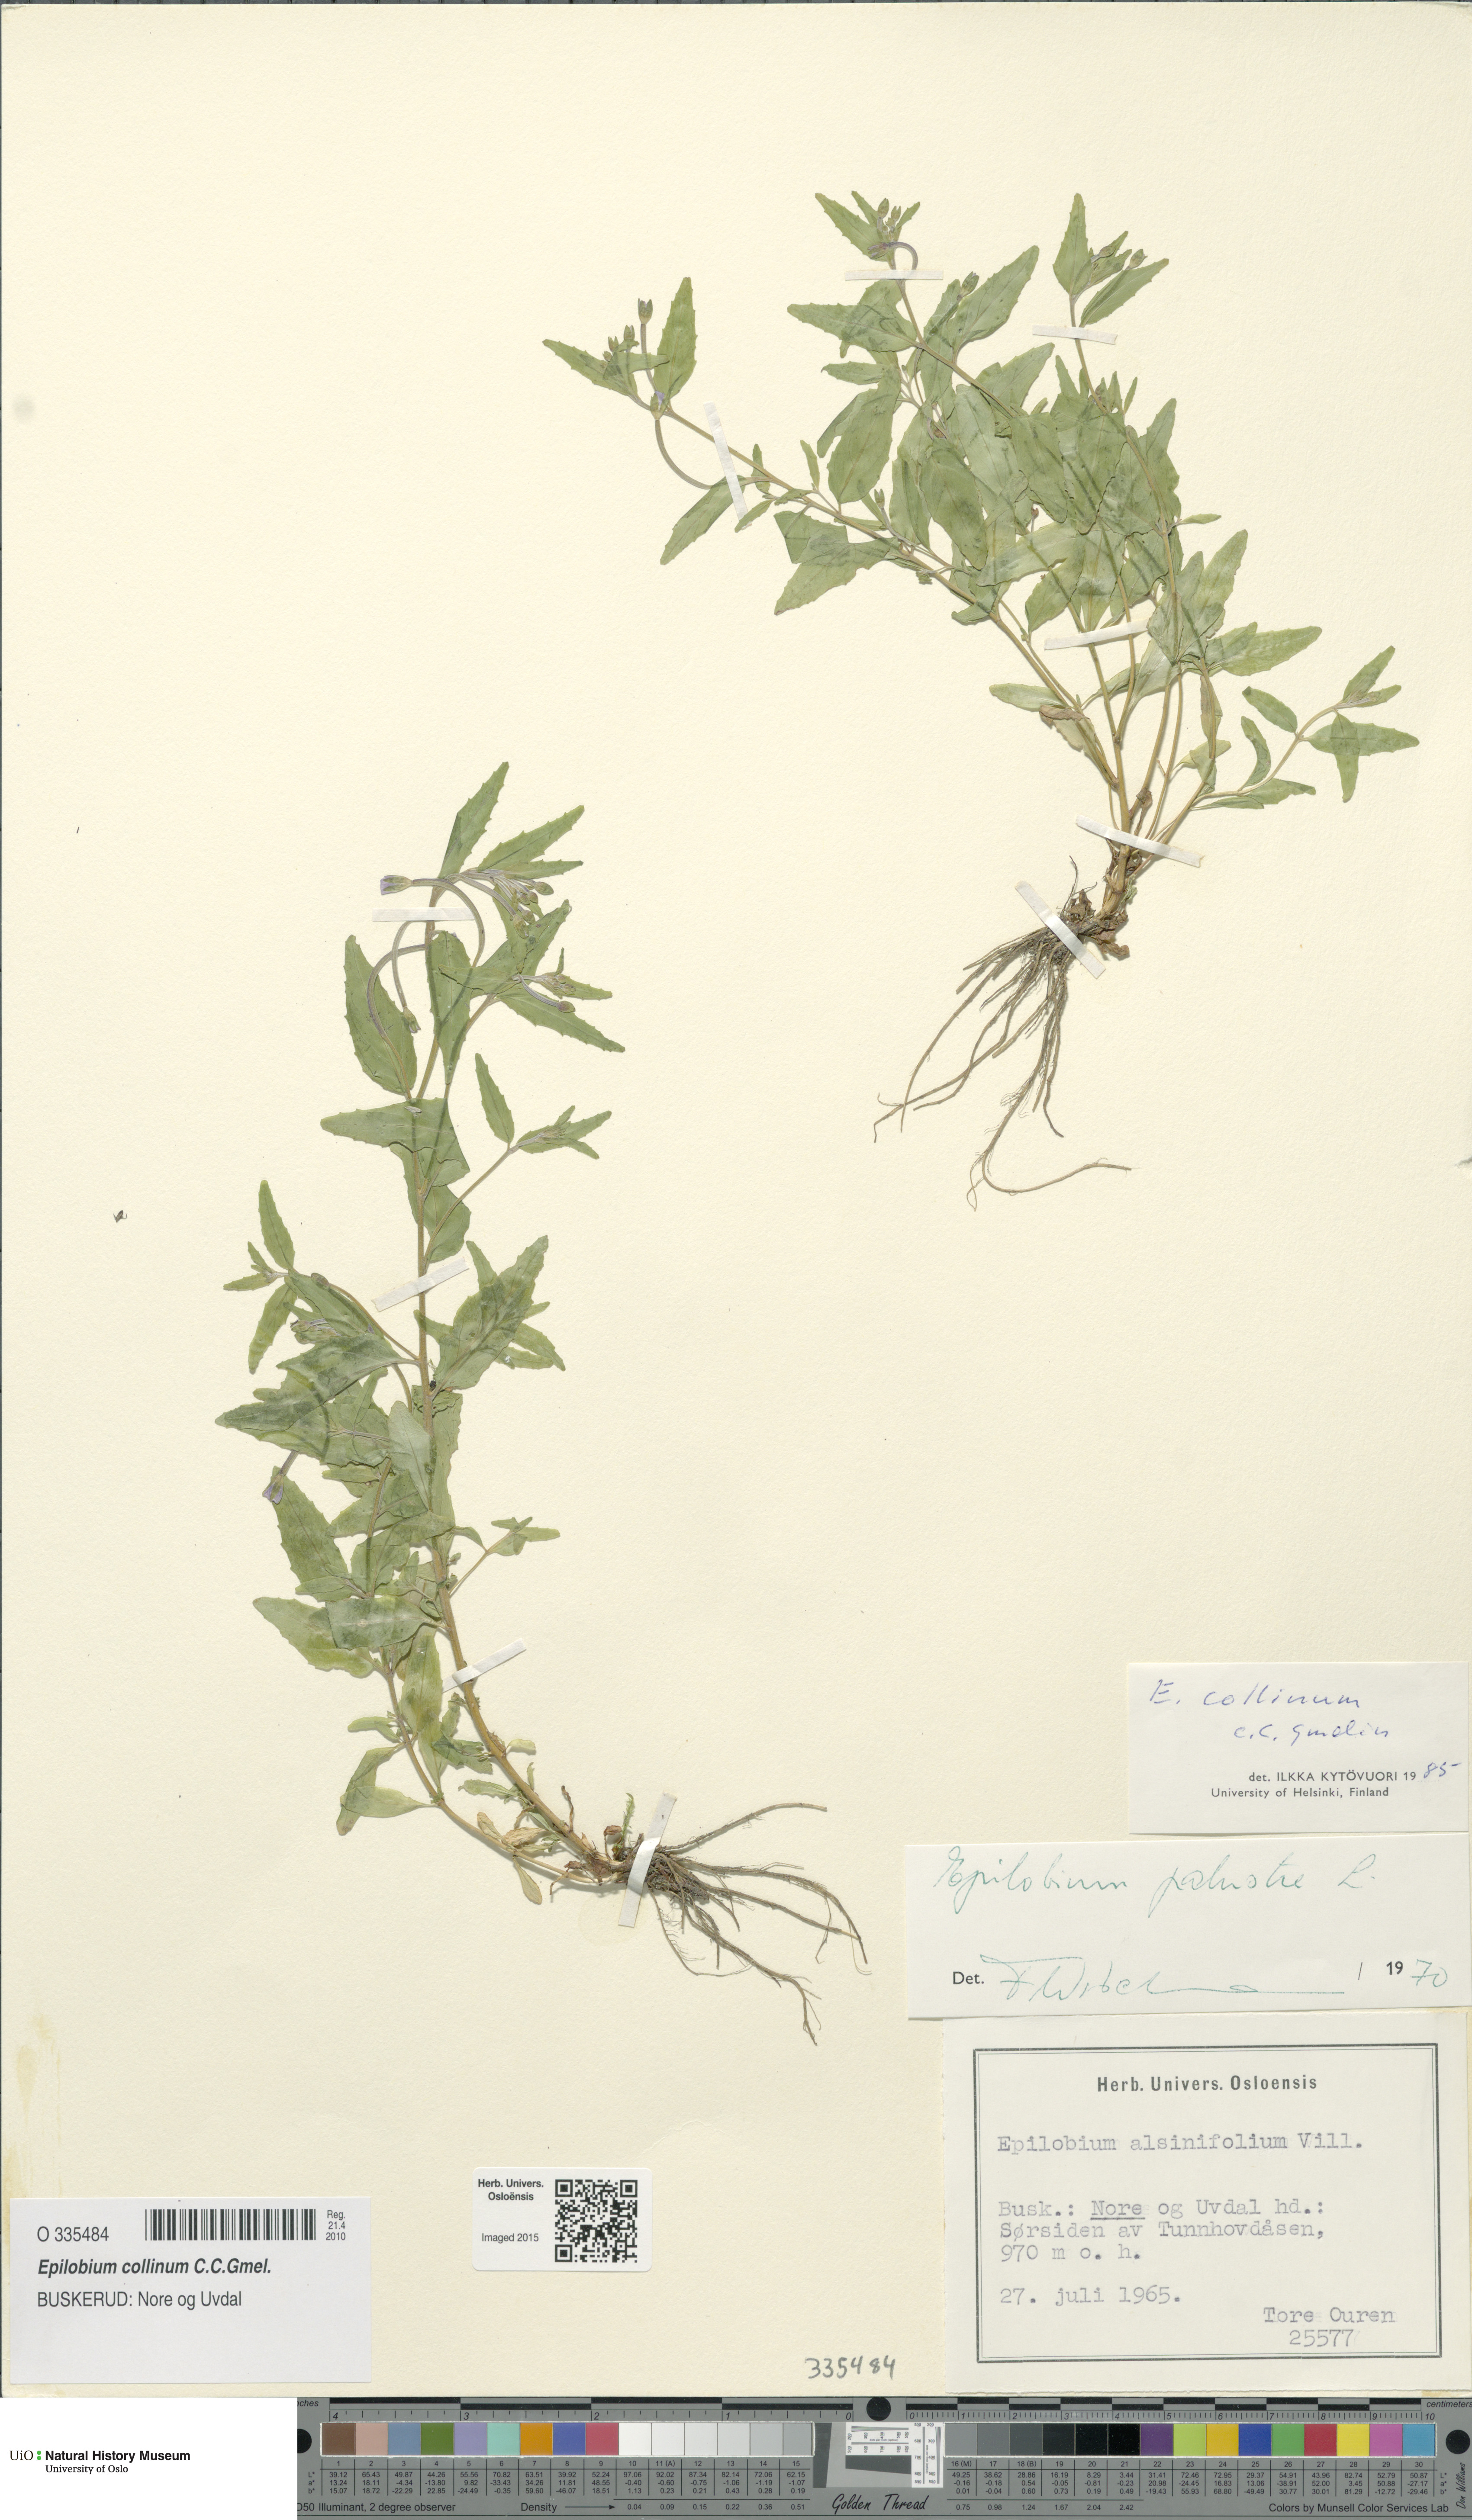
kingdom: Plantae
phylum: Tracheophyta
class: Magnoliopsida
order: Myrtales
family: Onagraceae
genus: Epilobium
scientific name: Epilobium collinum
